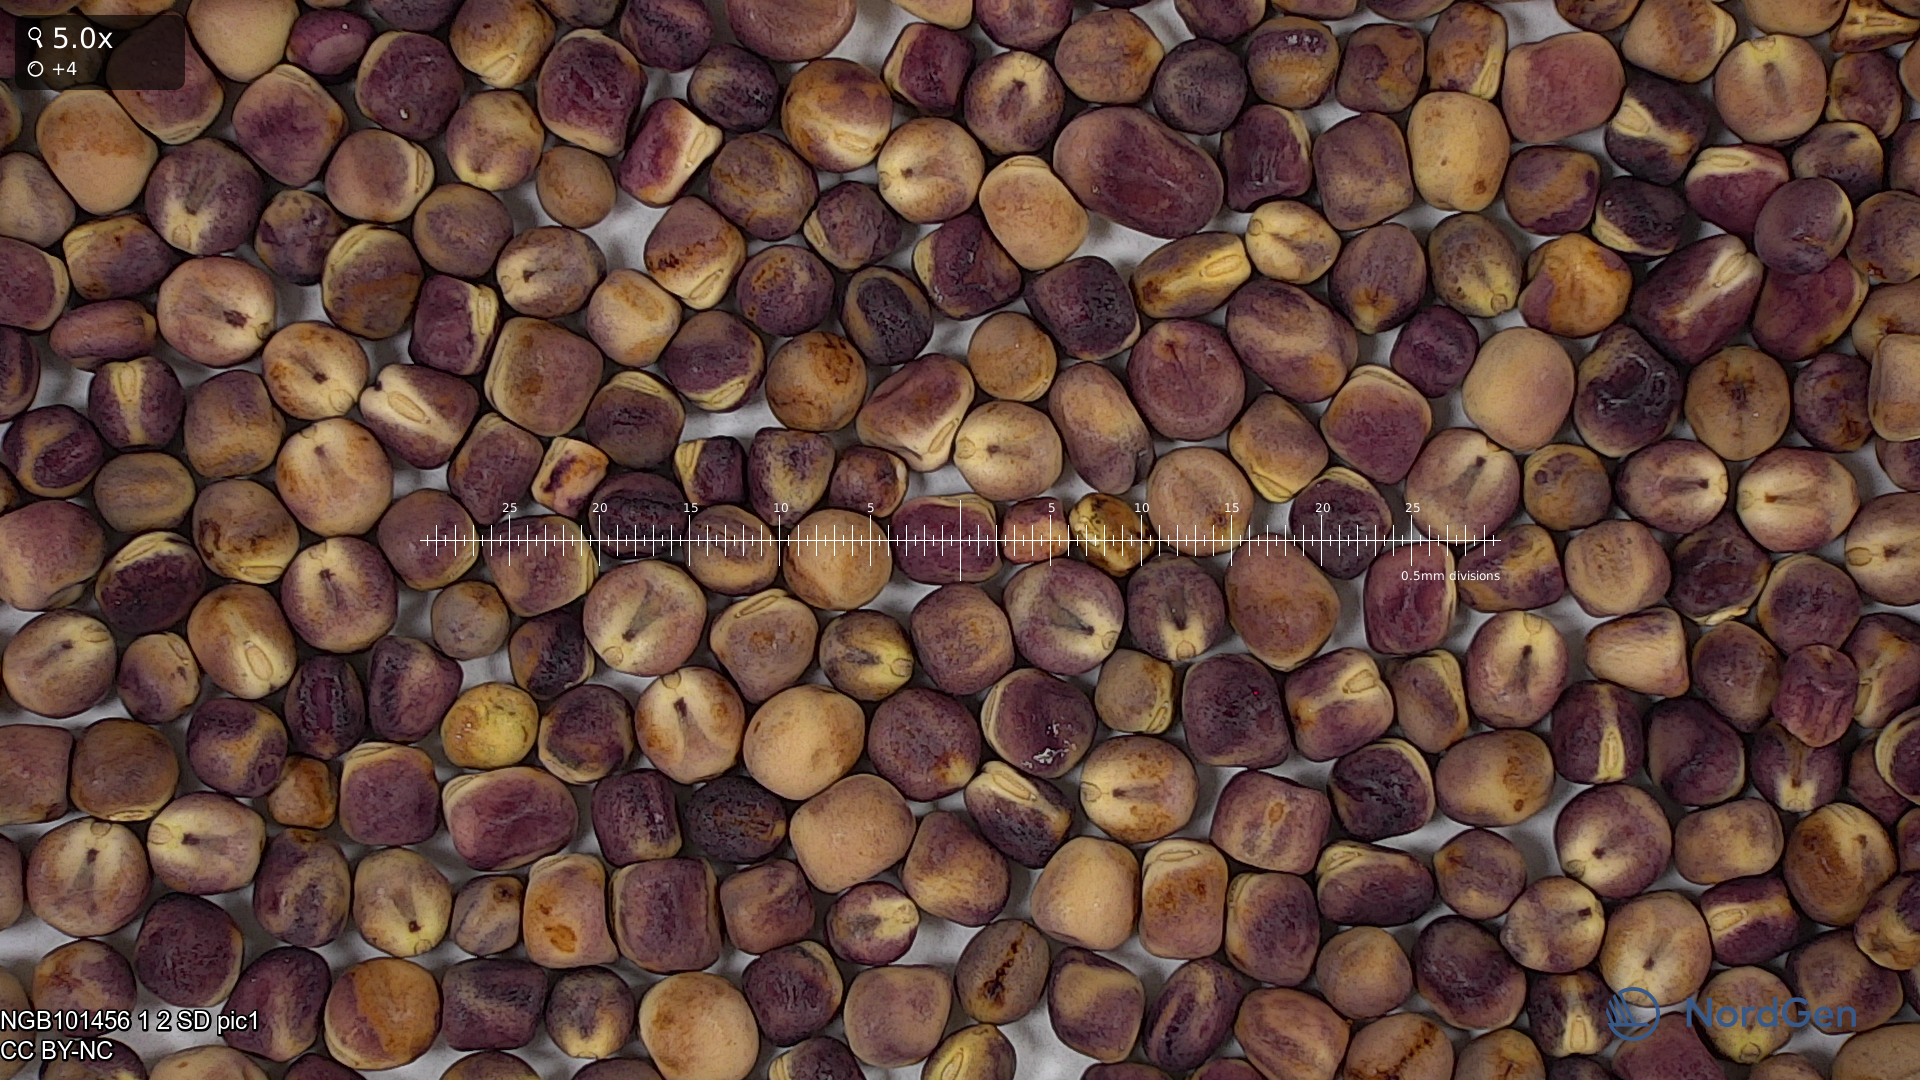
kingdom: Plantae
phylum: Tracheophyta
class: Magnoliopsida
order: Fabales
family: Fabaceae
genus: Lathyrus
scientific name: Lathyrus oleraceus
